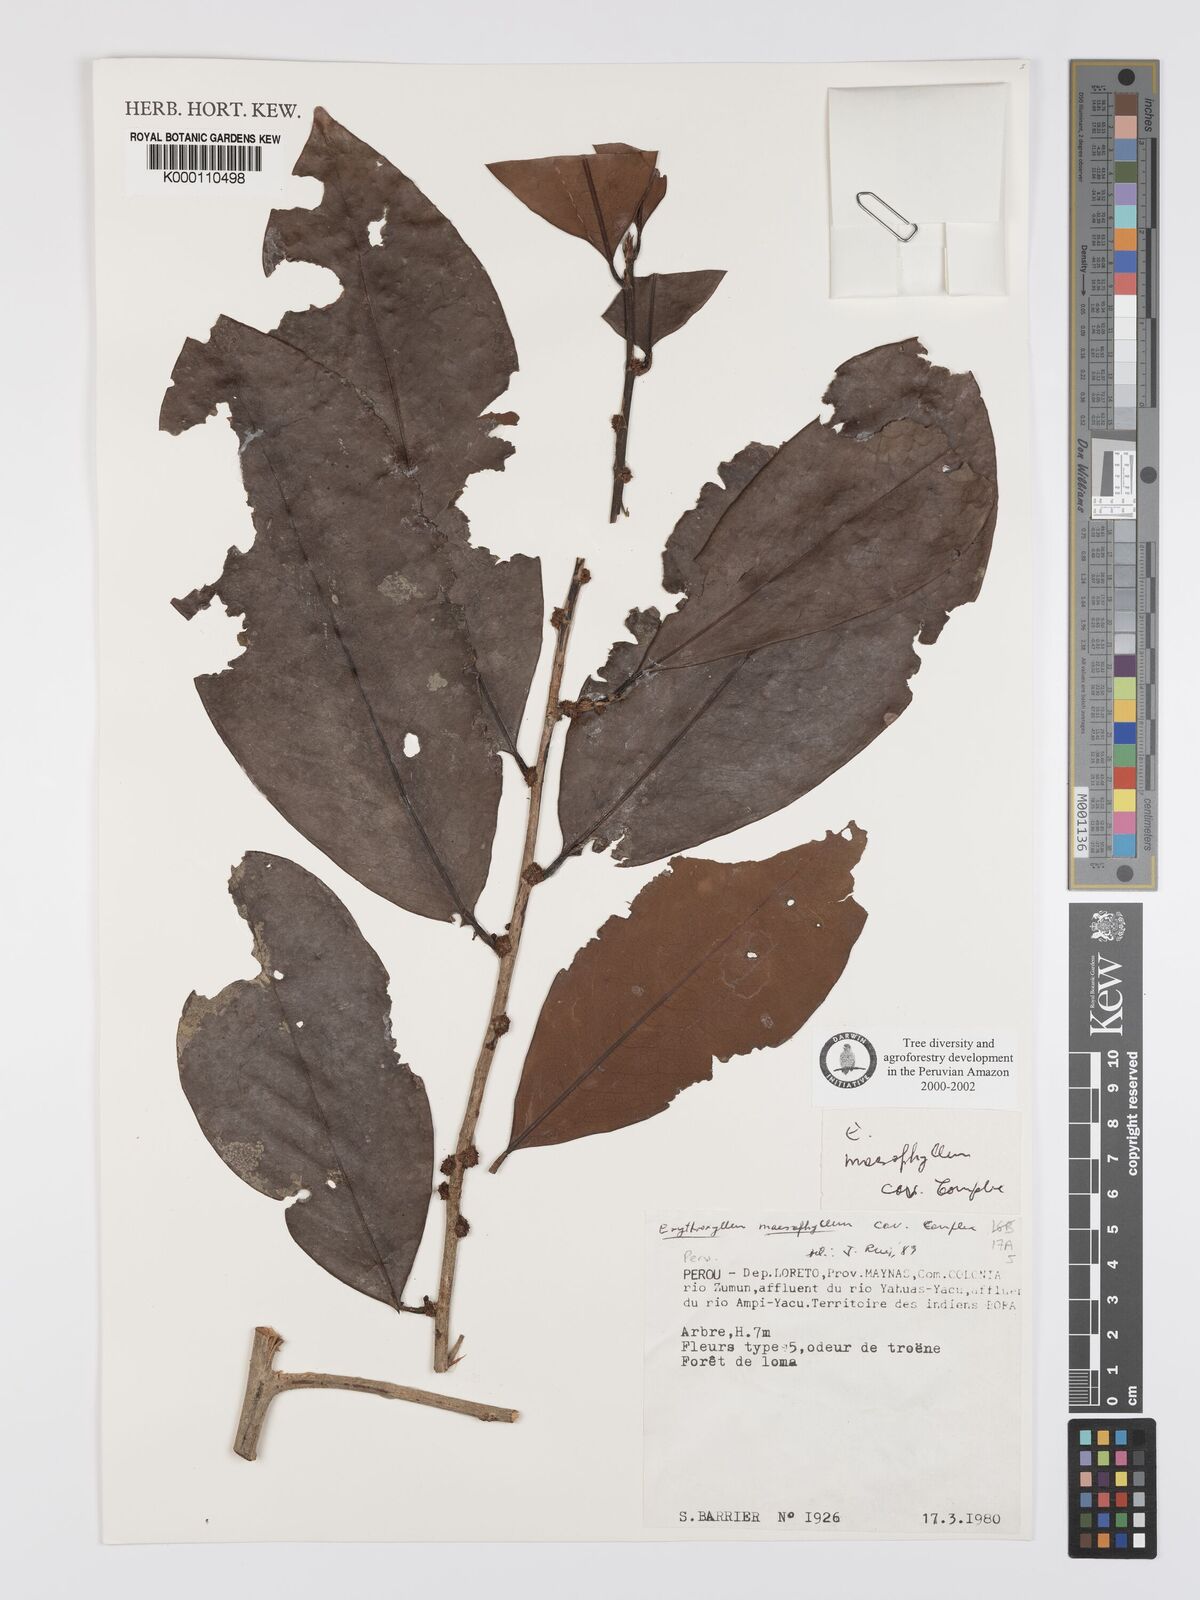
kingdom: Plantae
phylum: Tracheophyta
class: Magnoliopsida
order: Malpighiales
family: Erythroxylaceae
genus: Erythroxylum
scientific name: Erythroxylum
